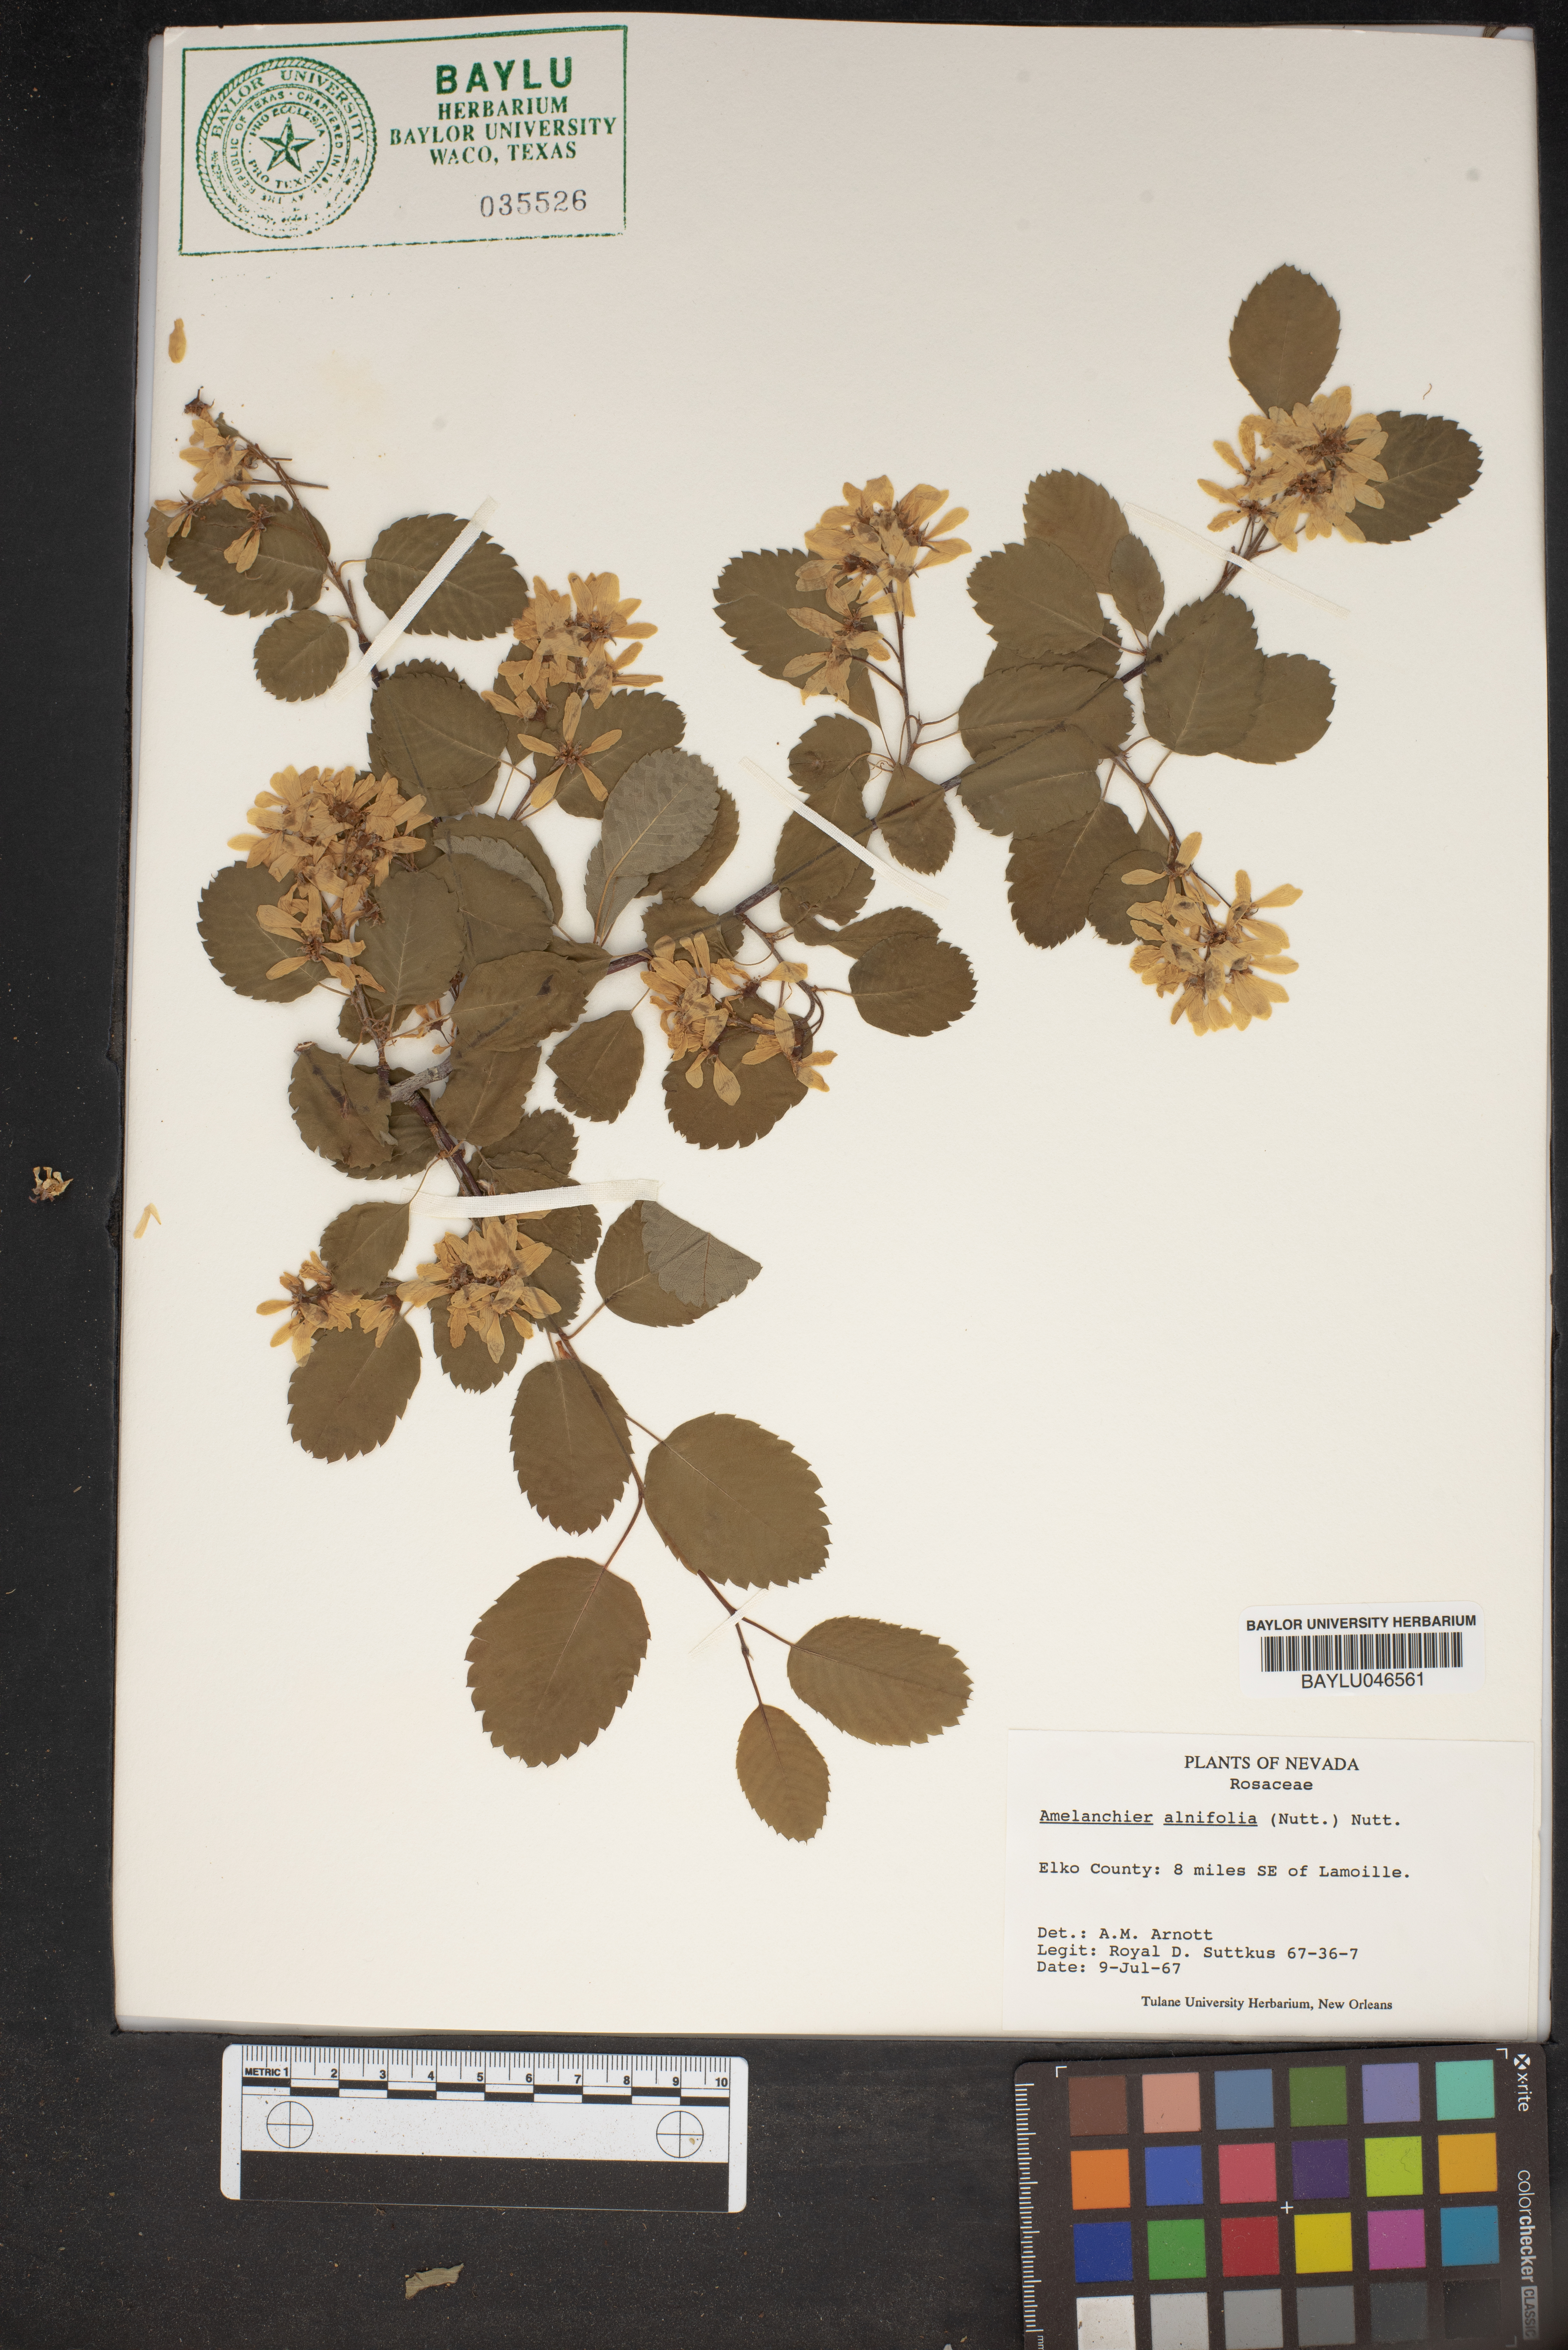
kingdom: Plantae
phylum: Tracheophyta
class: Magnoliopsida
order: Rosales
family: Rosaceae
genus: Amelanchier
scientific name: Amelanchier alnifolia
